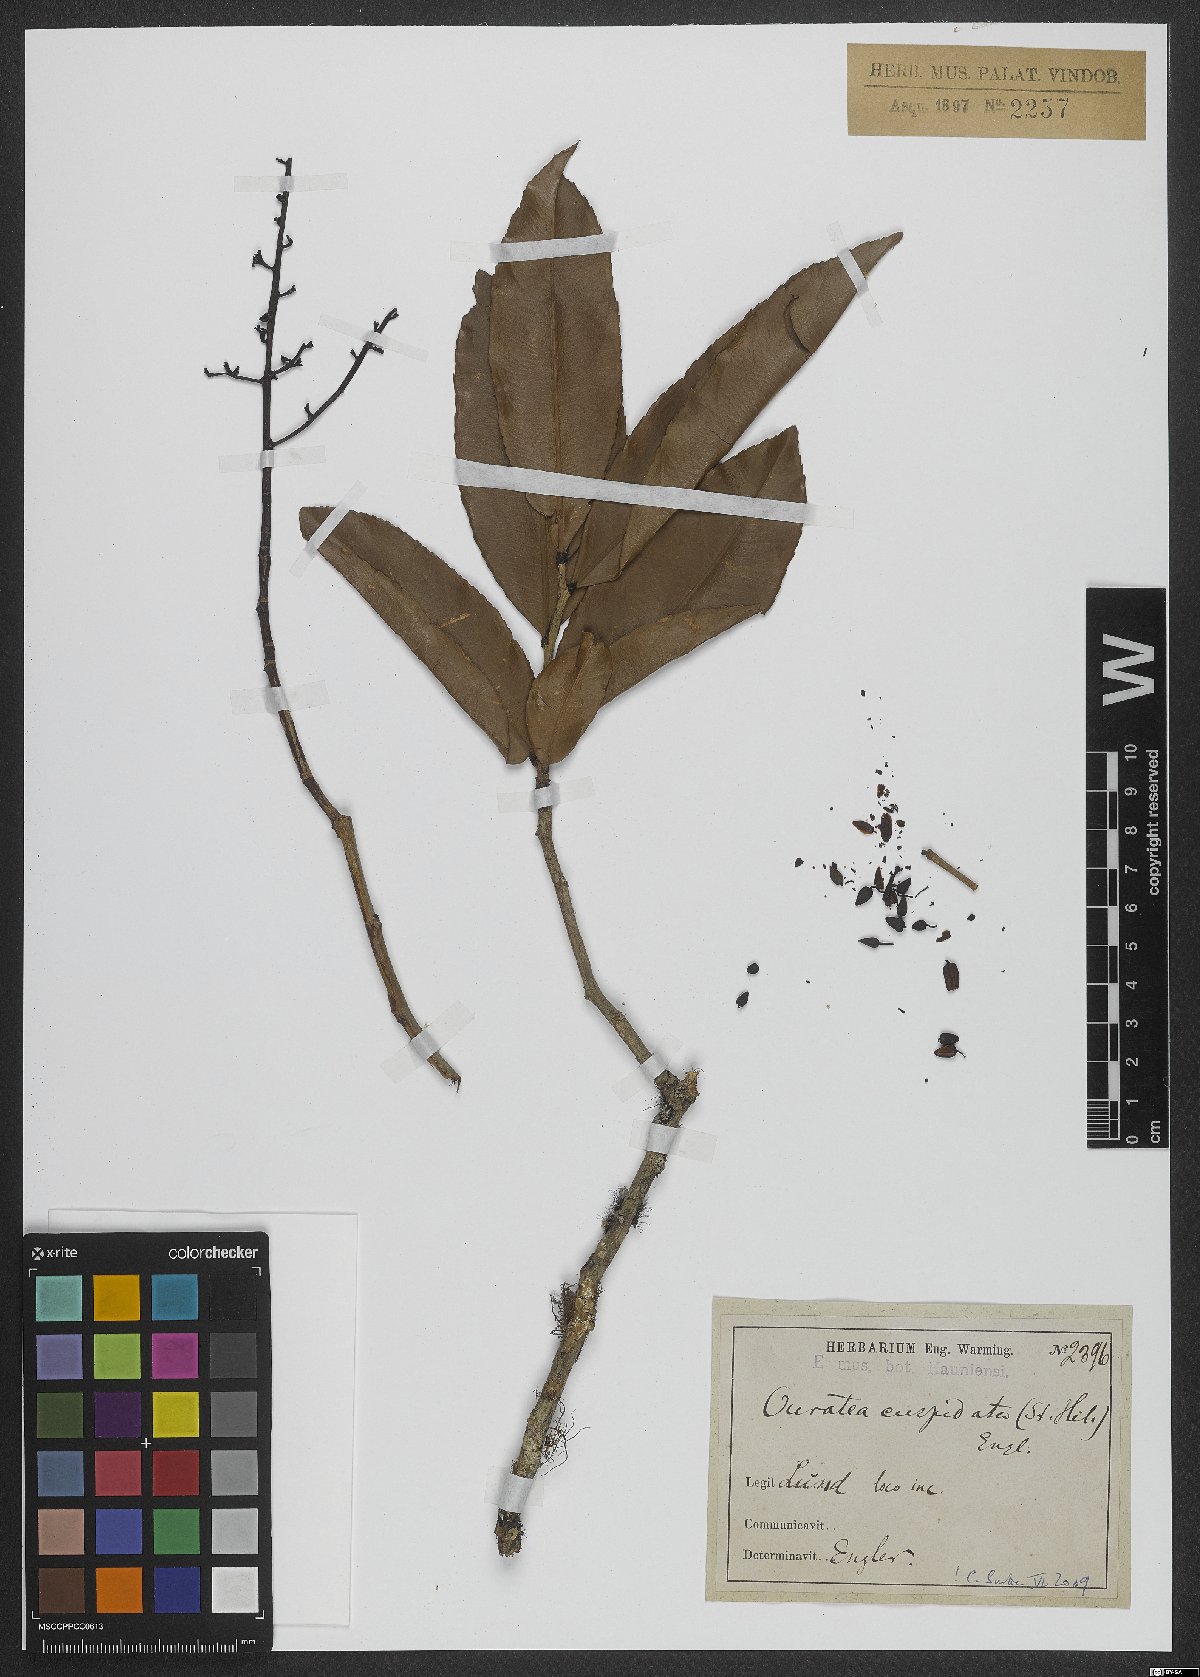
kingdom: Plantae
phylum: Tracheophyta
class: Magnoliopsida
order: Malpighiales
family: Ochnaceae
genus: Ouratea
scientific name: Ouratea cuspidata
